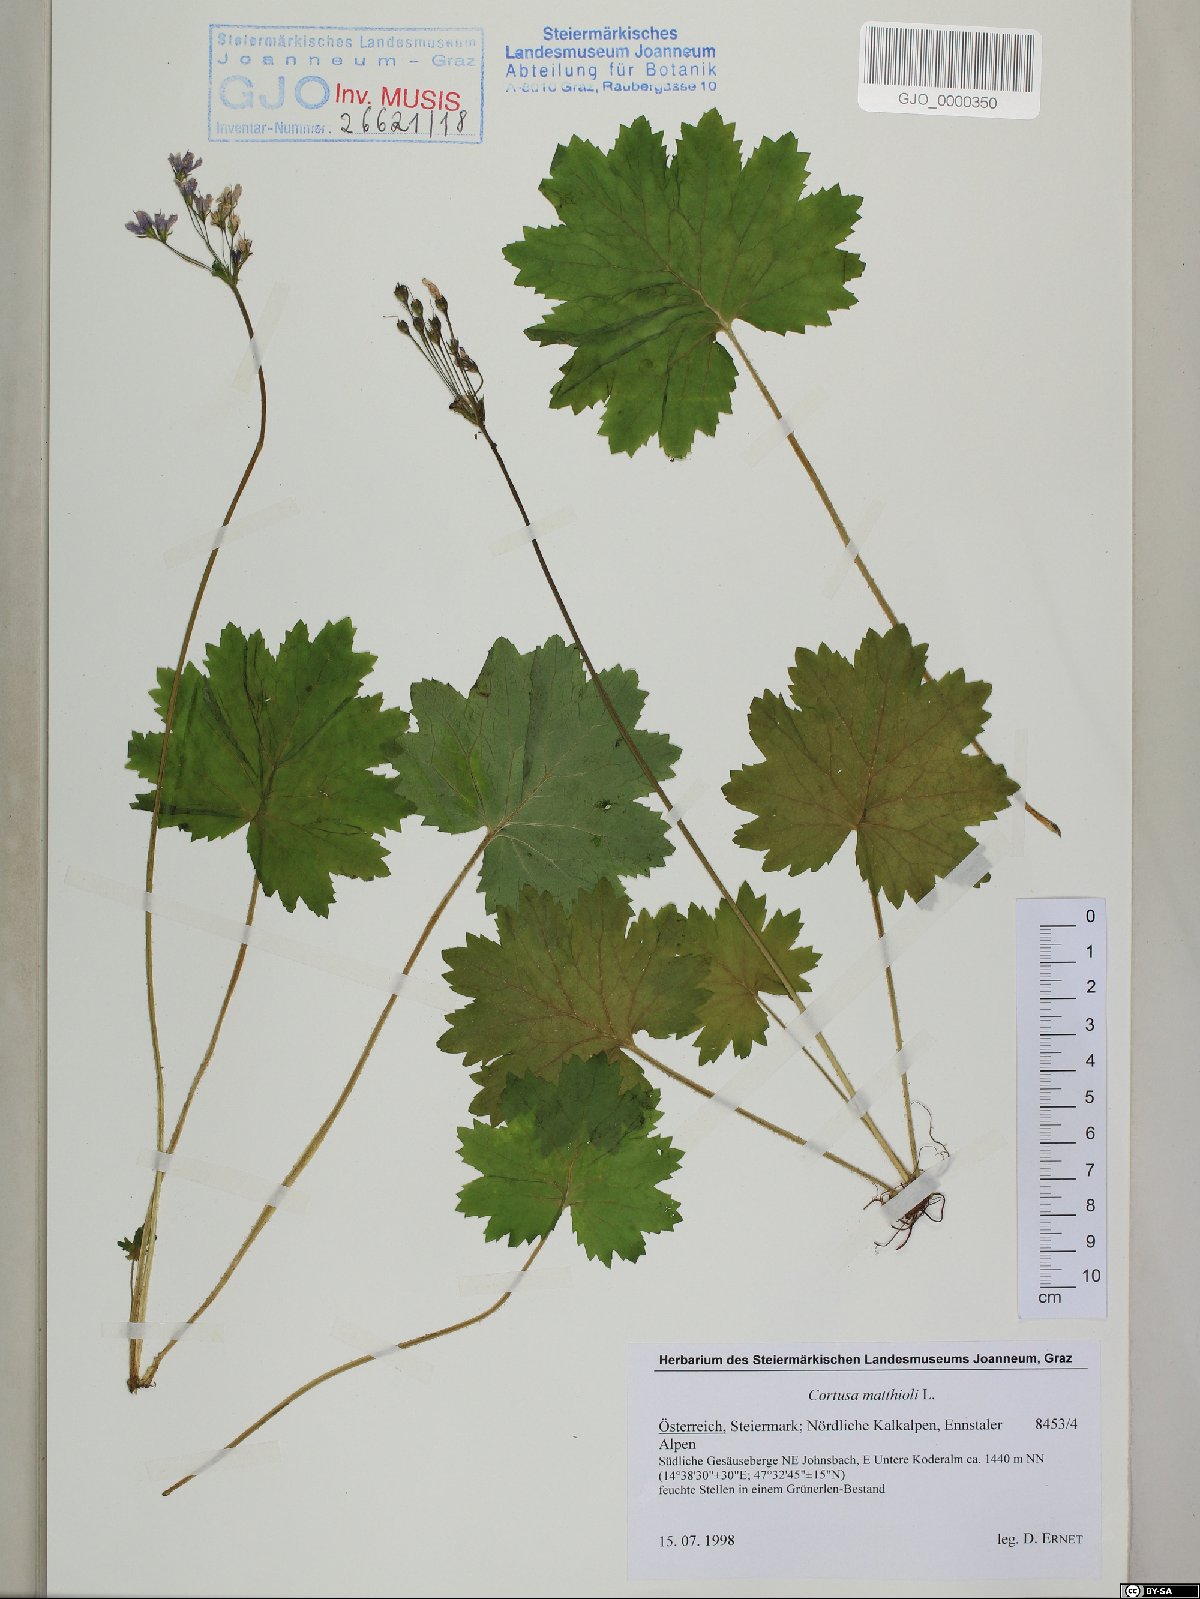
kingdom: Plantae
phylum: Tracheophyta
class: Magnoliopsida
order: Ericales
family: Primulaceae
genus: Primula
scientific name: Primula matthioli
